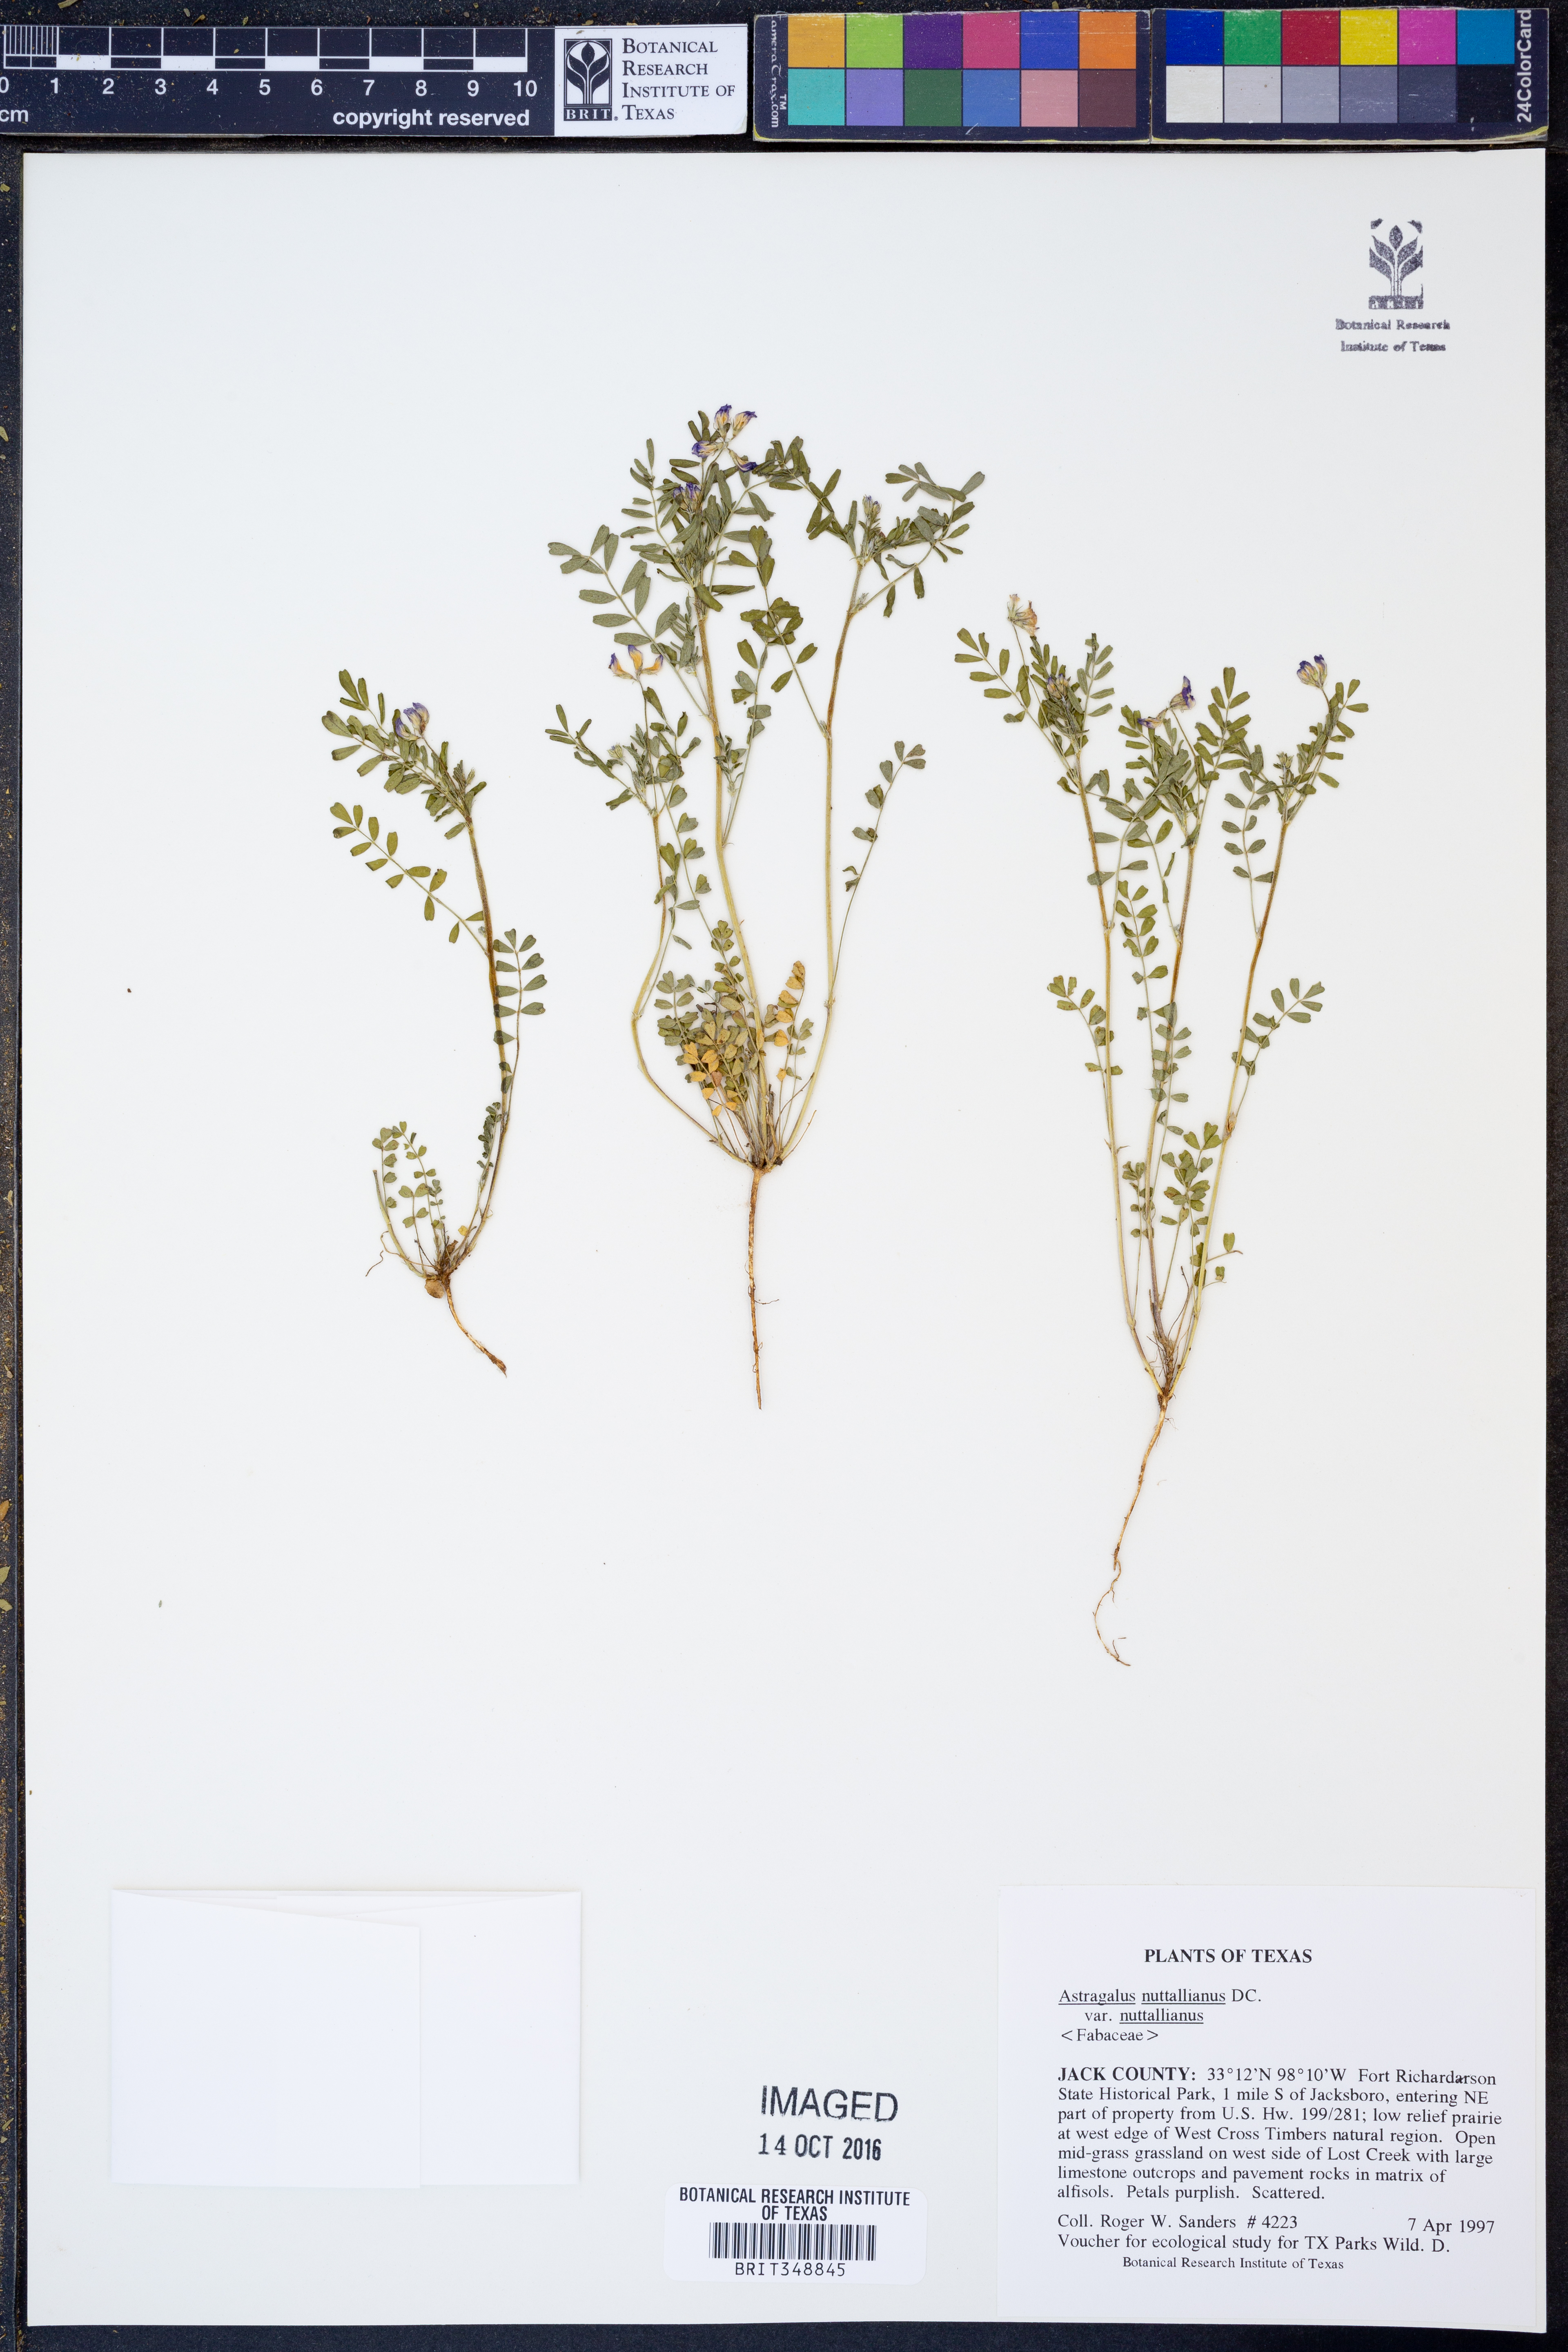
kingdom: Plantae
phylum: Tracheophyta
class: Magnoliopsida
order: Fabales
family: Fabaceae
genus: Astragalus
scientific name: Astragalus nuttallianus
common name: Smallflowered milkvetch
